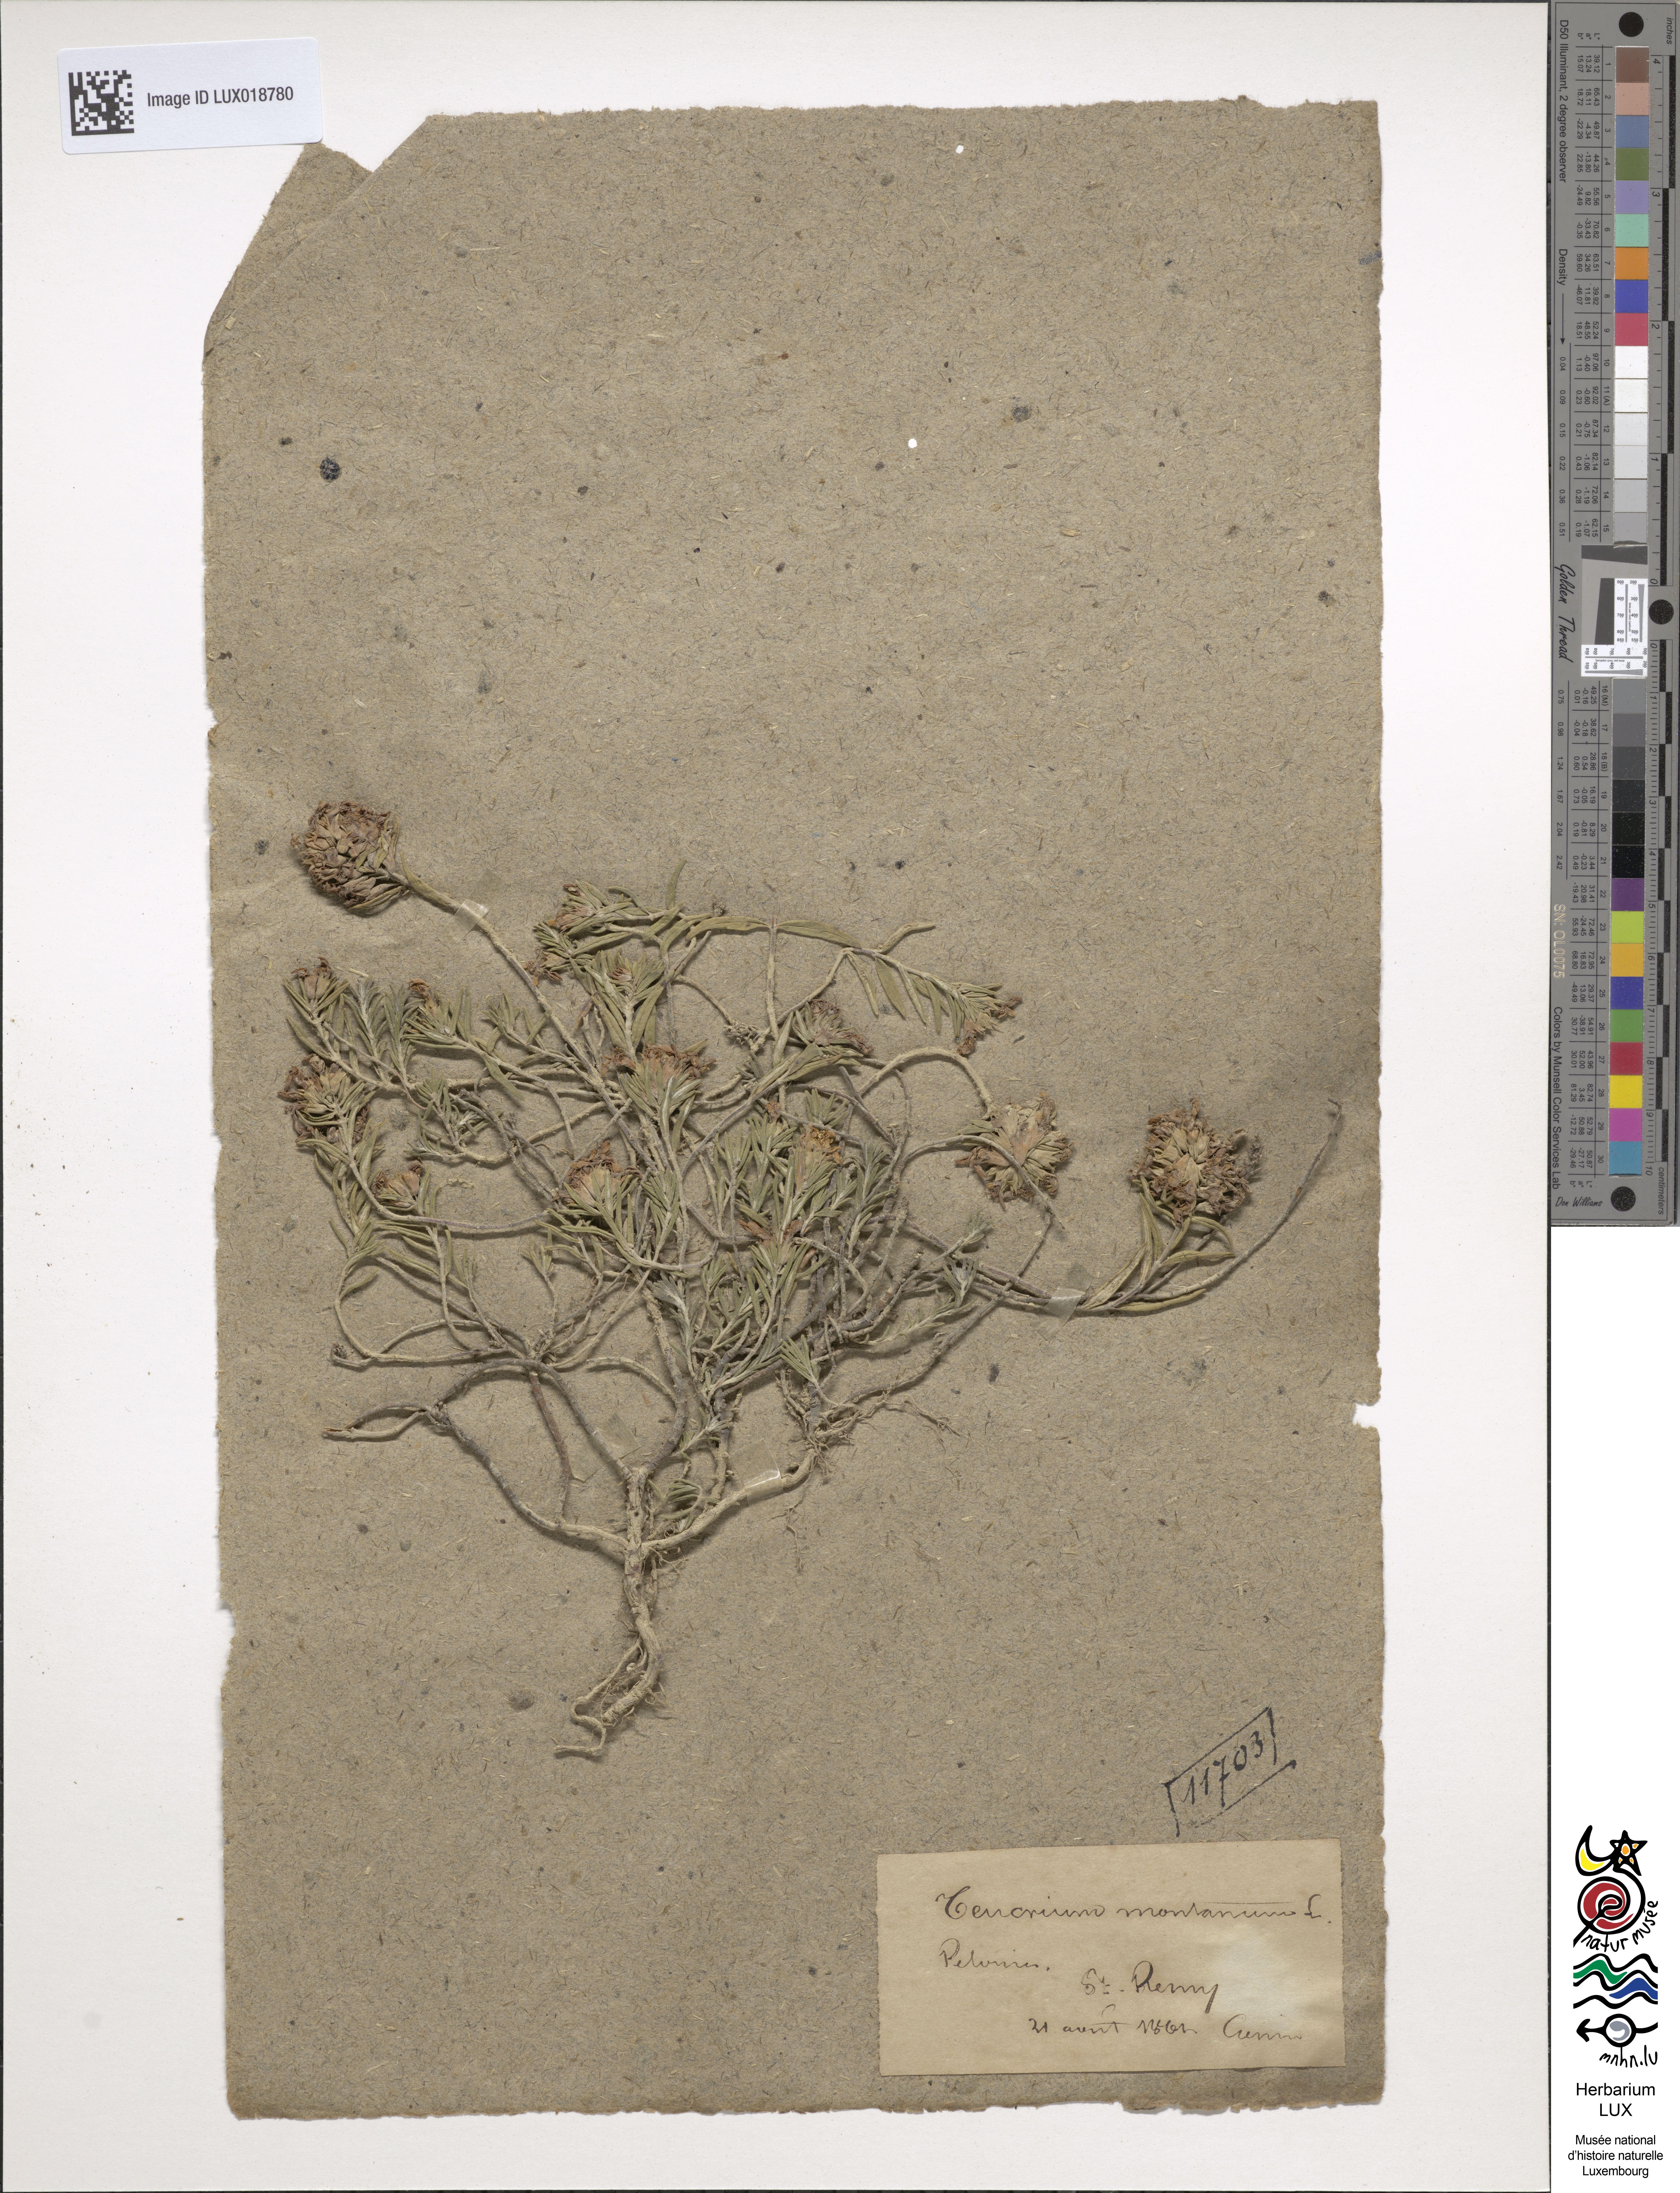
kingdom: Plantae
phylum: Tracheophyta
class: Magnoliopsida
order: Lamiales
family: Lamiaceae
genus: Teucrium
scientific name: Teucrium montanum
